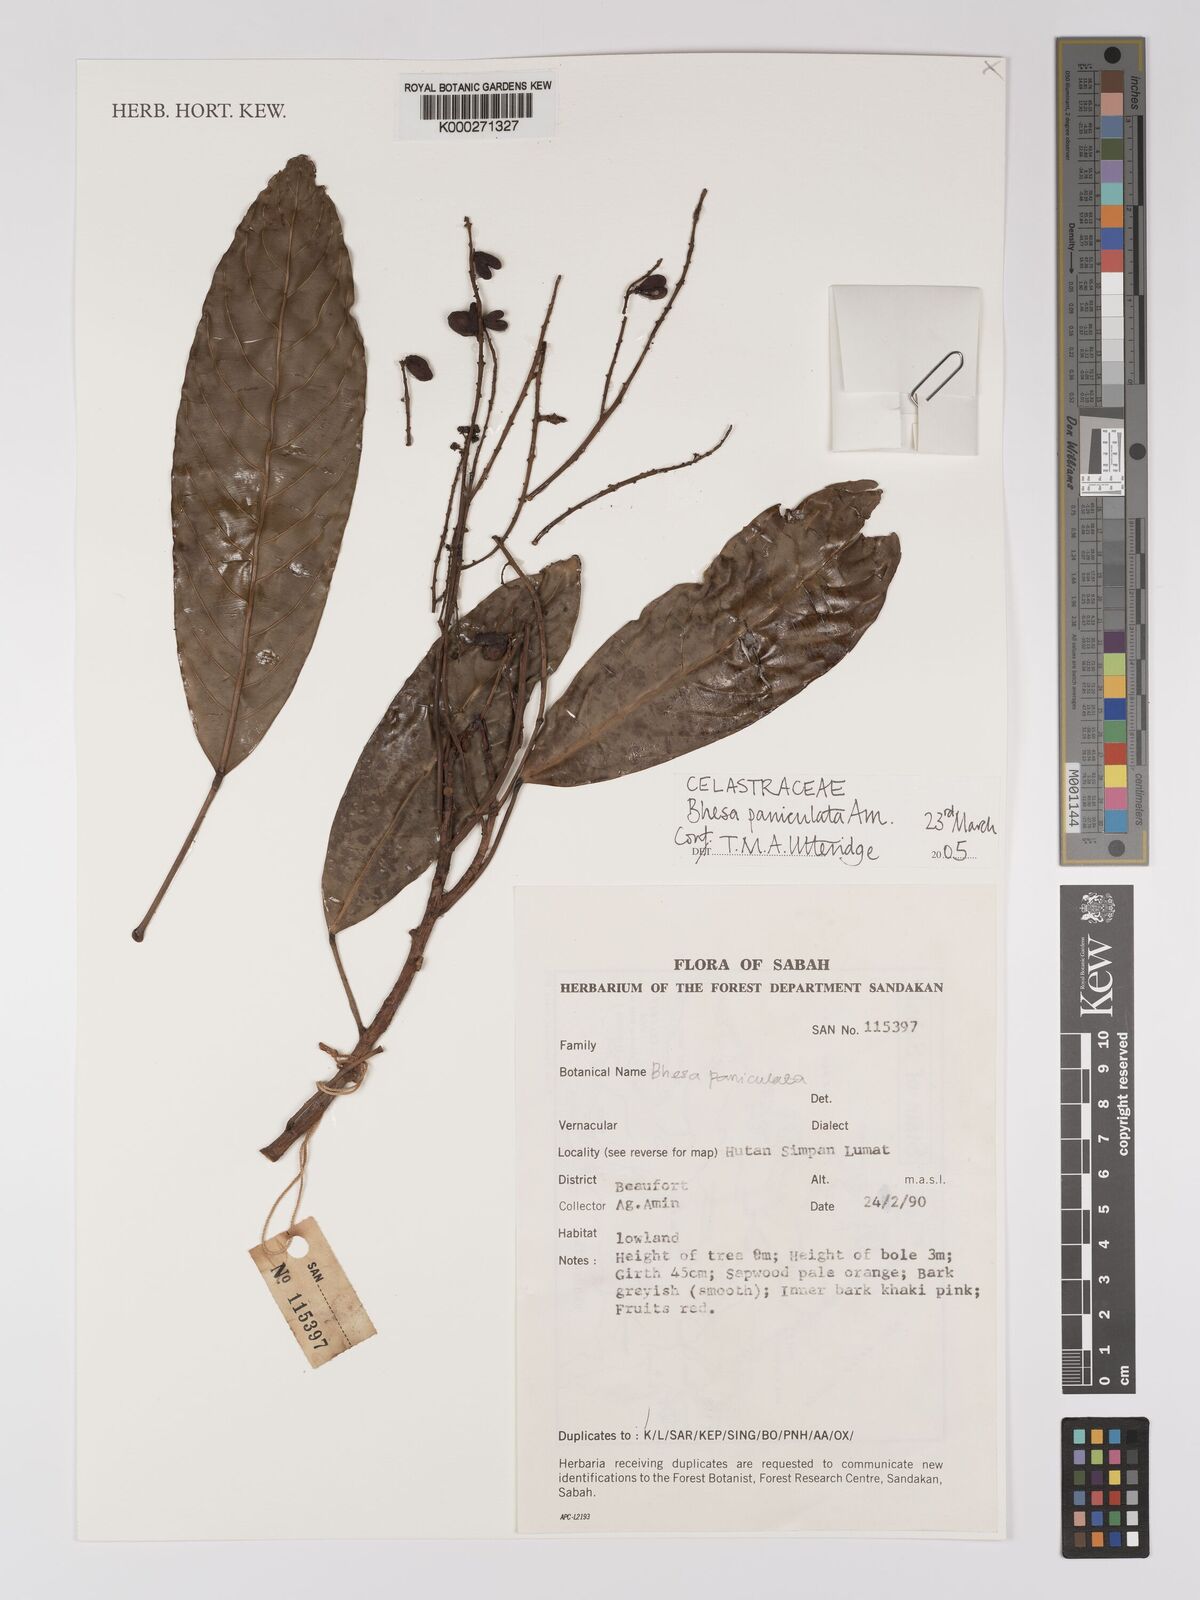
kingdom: Plantae
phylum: Tracheophyta
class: Magnoliopsida
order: Malpighiales
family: Centroplacaceae
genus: Bhesa
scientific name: Bhesa paniculata
